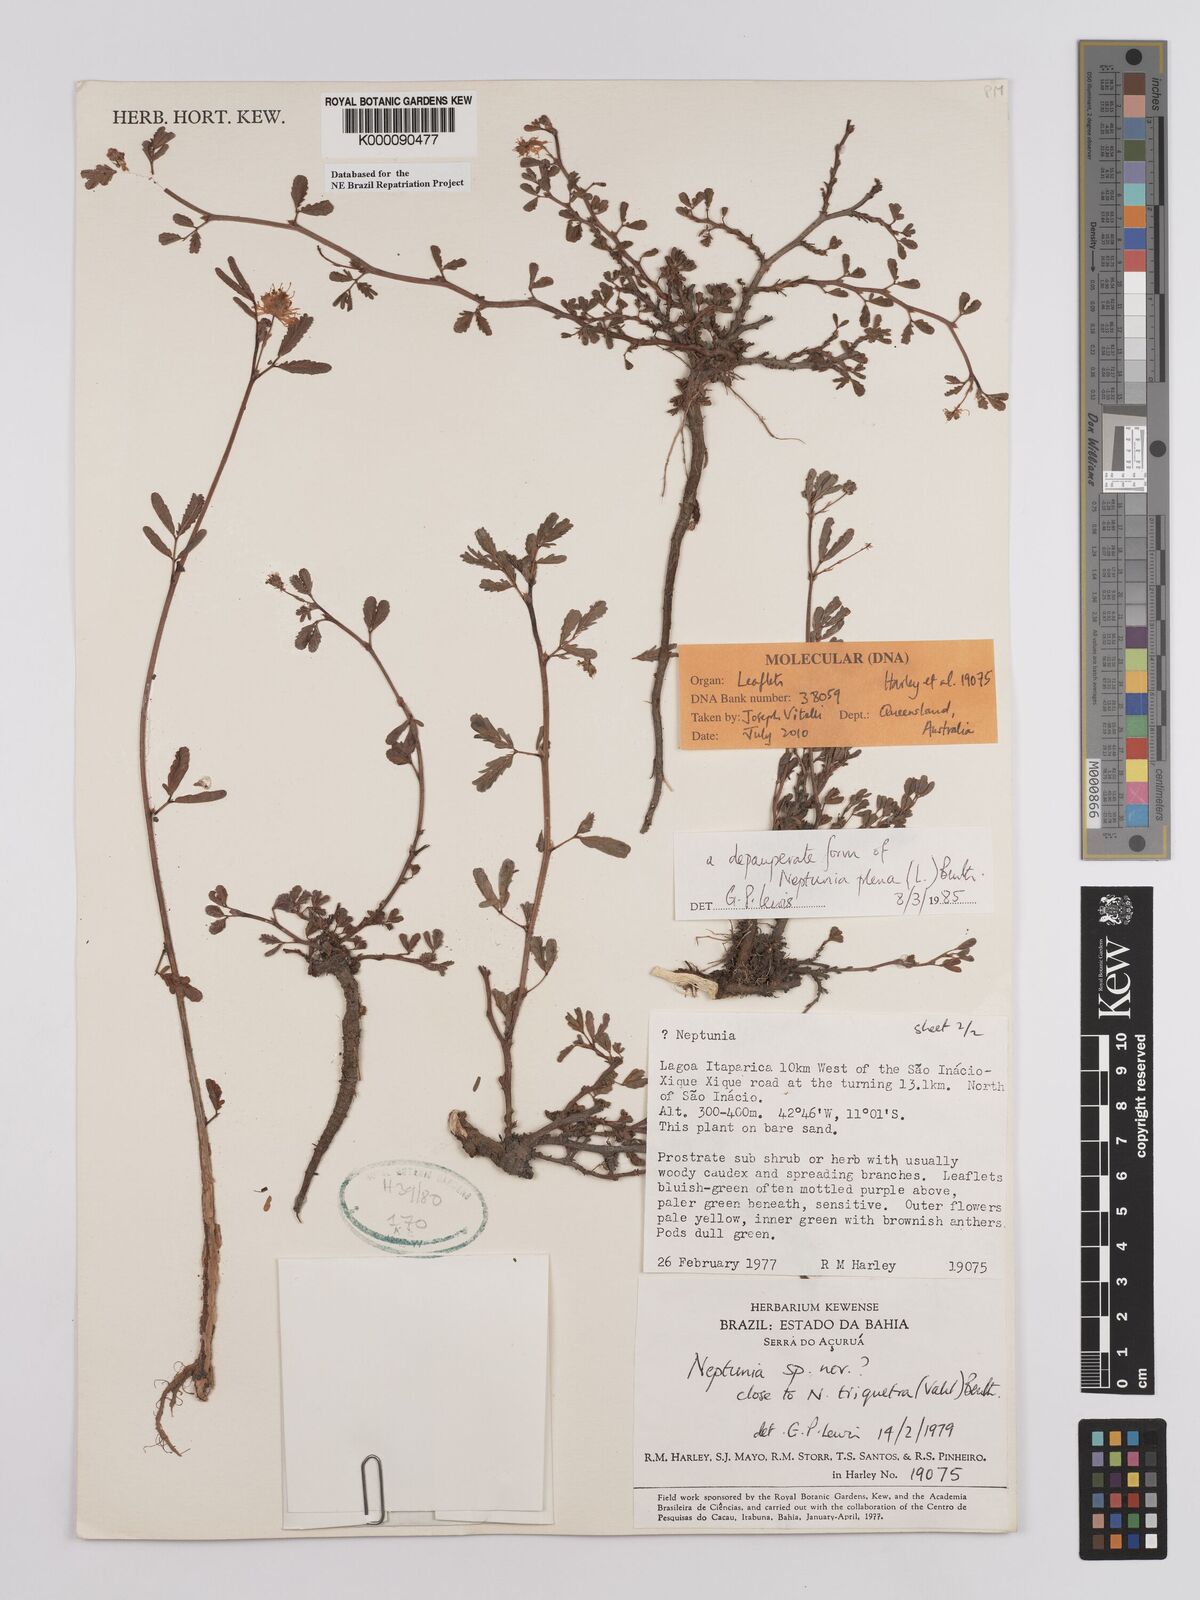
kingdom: Plantae
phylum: Tracheophyta
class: Magnoliopsida
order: Fabales
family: Fabaceae
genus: Neptunia
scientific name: Neptunia plena
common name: Dead and awake
